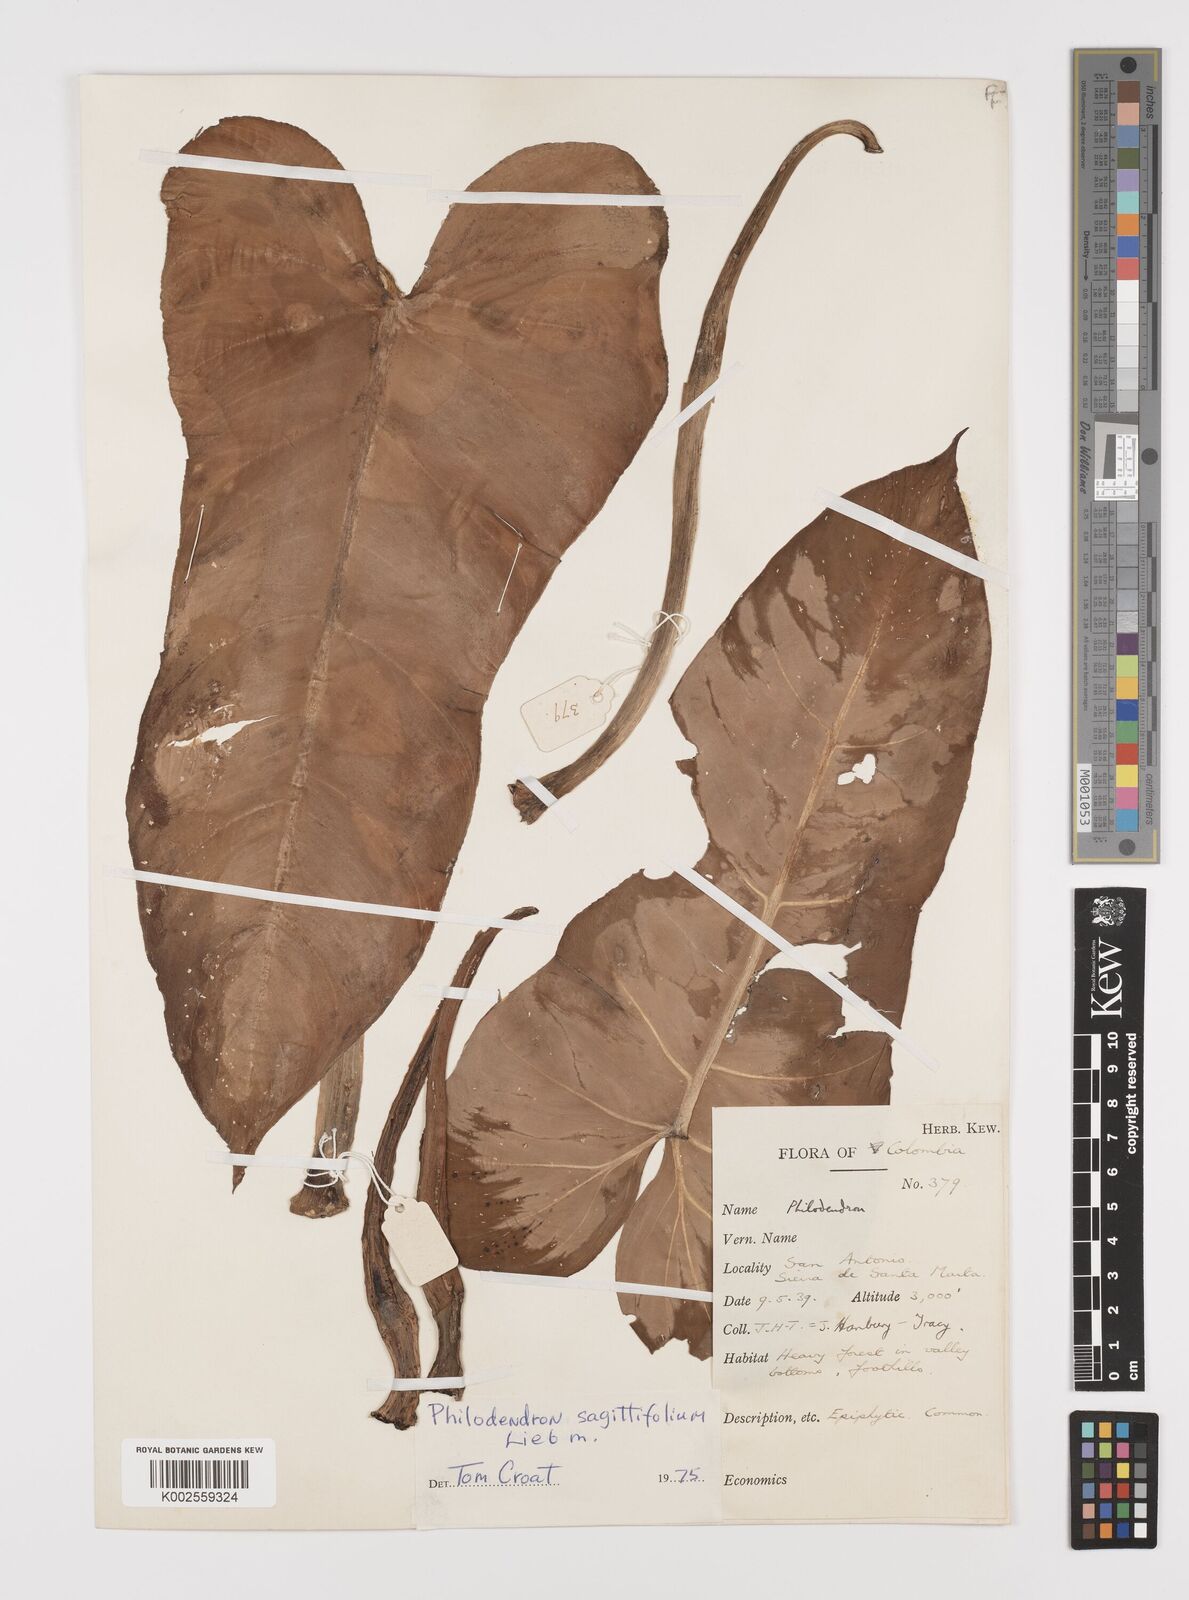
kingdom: Plantae
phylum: Tracheophyta
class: Liliopsida
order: Alismatales
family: Araceae
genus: Philodendron
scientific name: Philodendron sagittifolium
